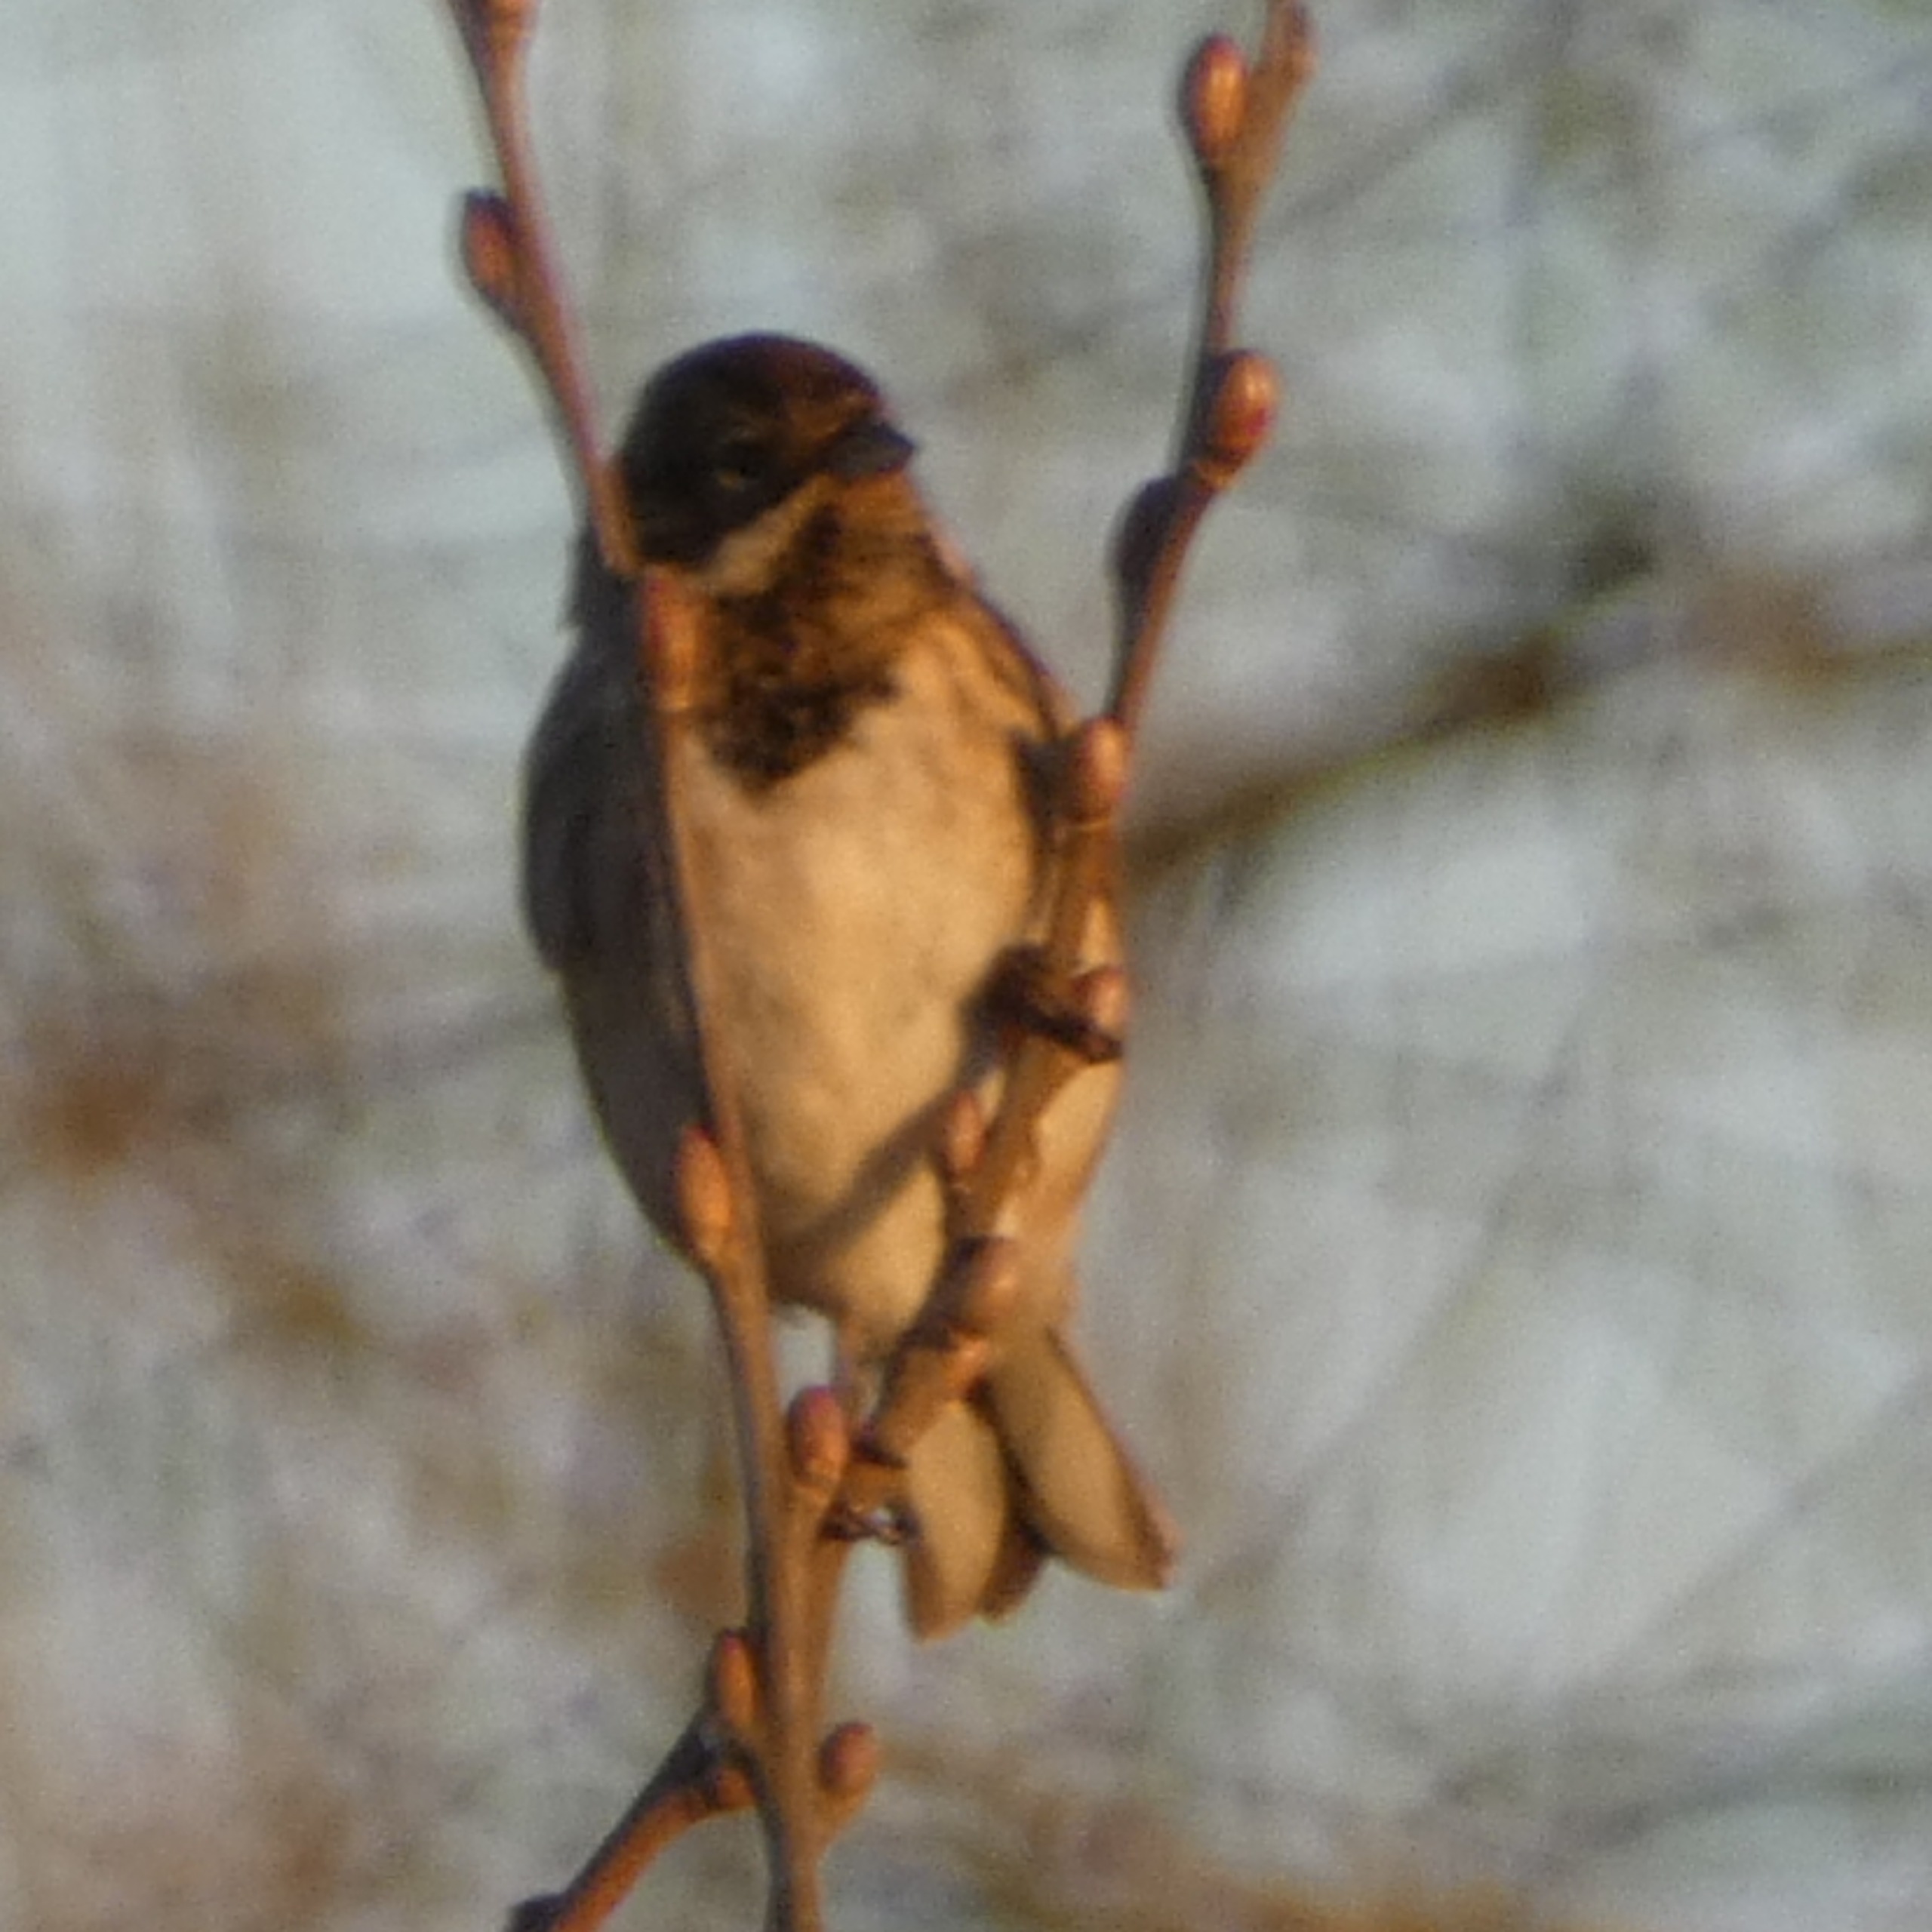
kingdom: Animalia
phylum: Chordata
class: Aves
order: Passeriformes
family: Emberizidae
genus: Emberiza
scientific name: Emberiza schoeniclus
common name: Rørspurv
